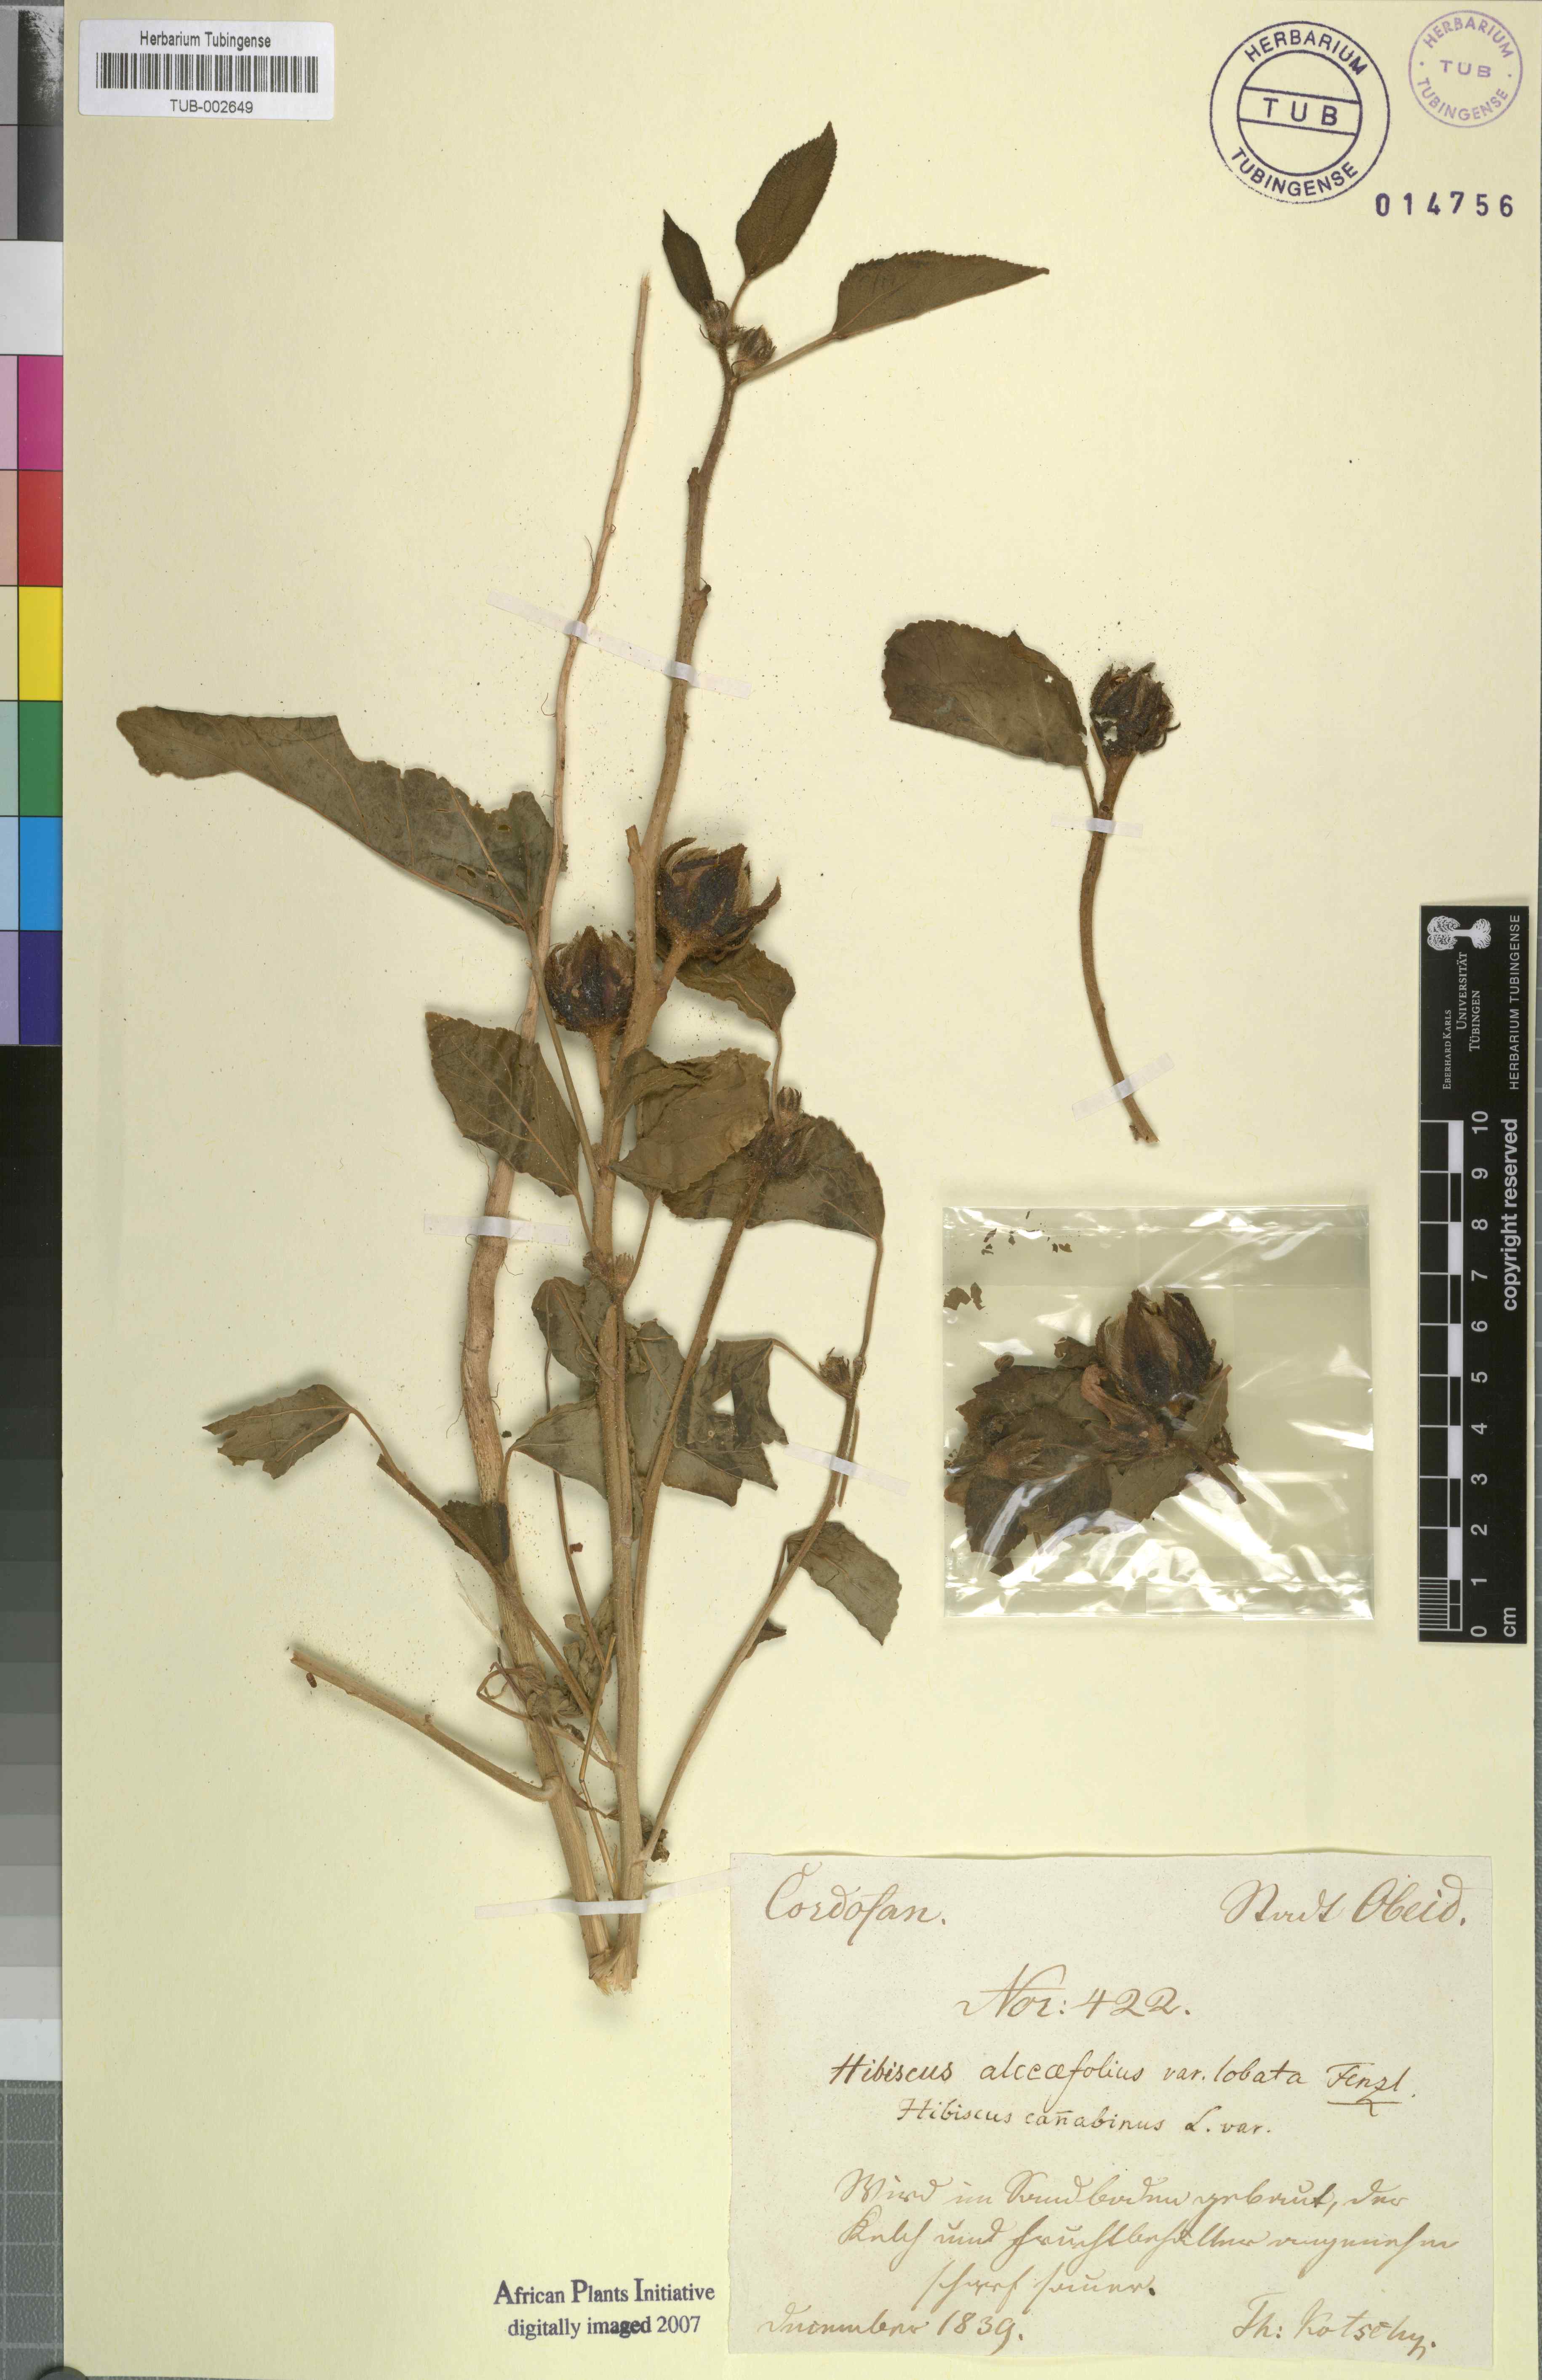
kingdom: Plantae
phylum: Tracheophyta
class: Magnoliopsida
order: Malvales
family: Malvaceae
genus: Hibiscus
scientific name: Hibiscus cannabinus
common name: Brown indianhemp
